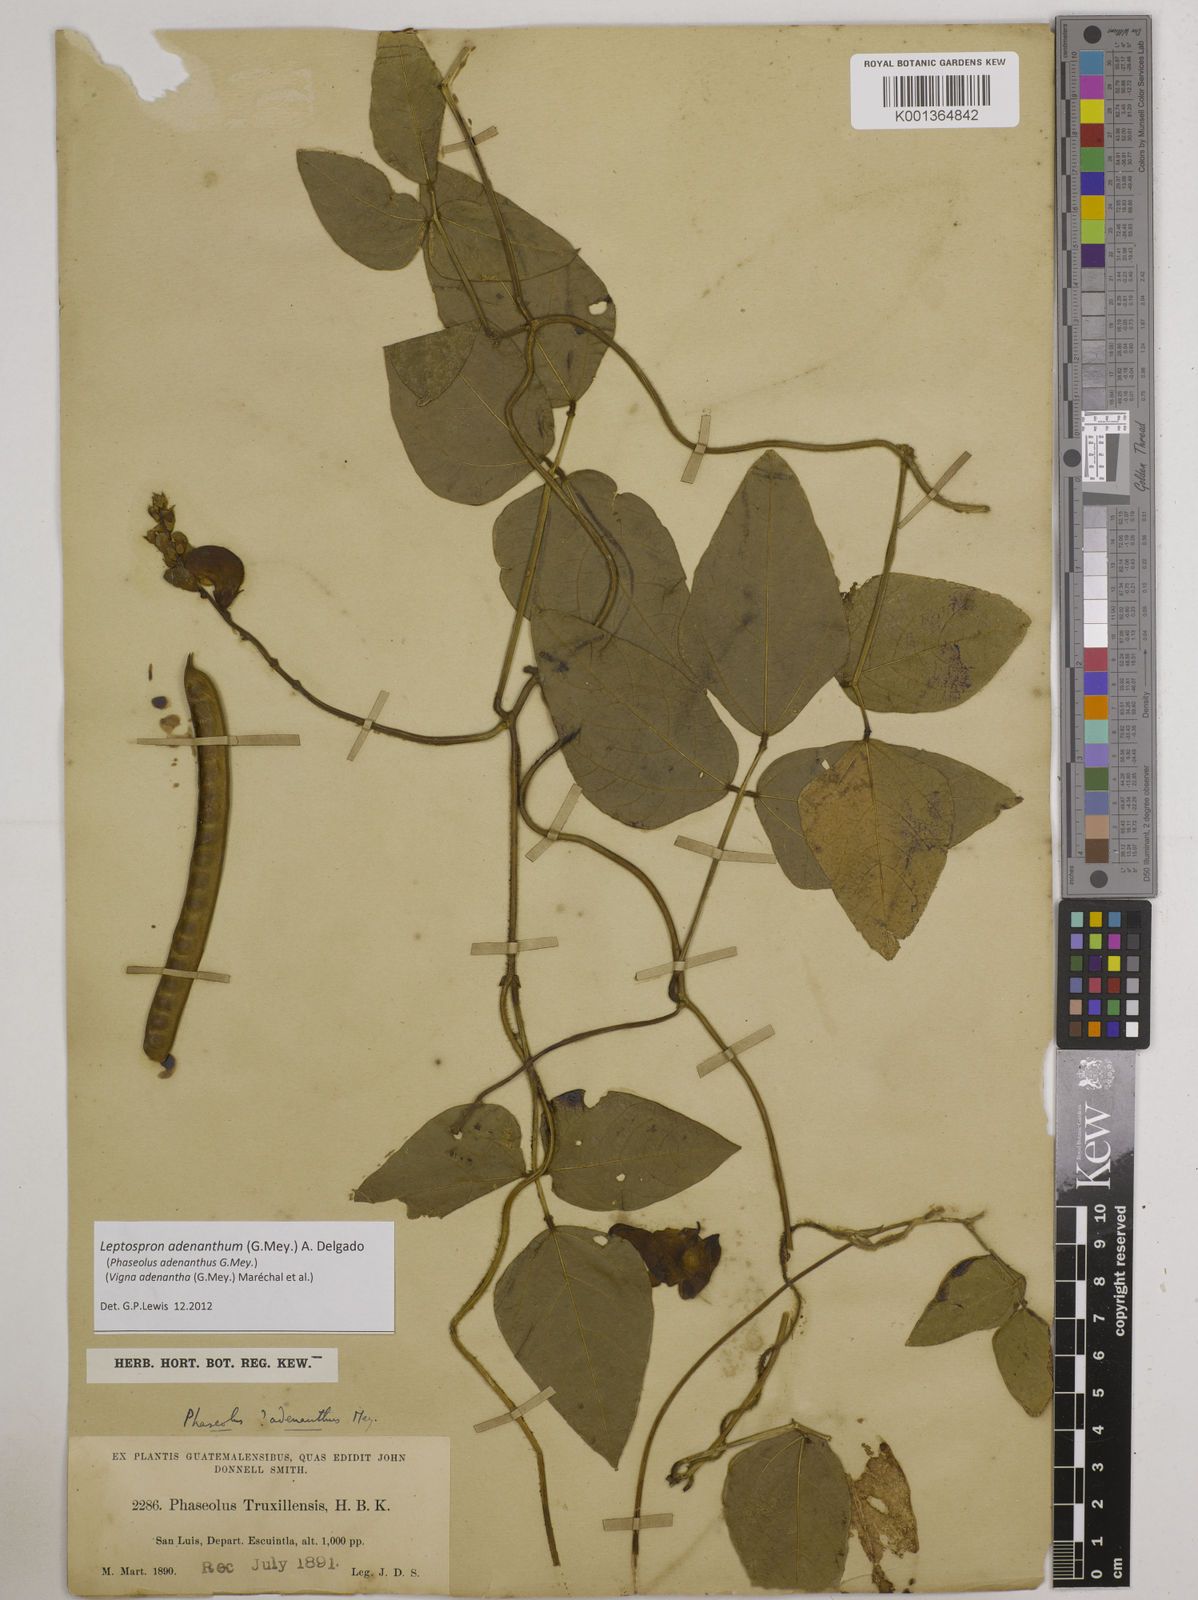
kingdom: Plantae
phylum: Tracheophyta
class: Magnoliopsida
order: Fabales
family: Fabaceae
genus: Leptospron
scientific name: Leptospron adenanthum
